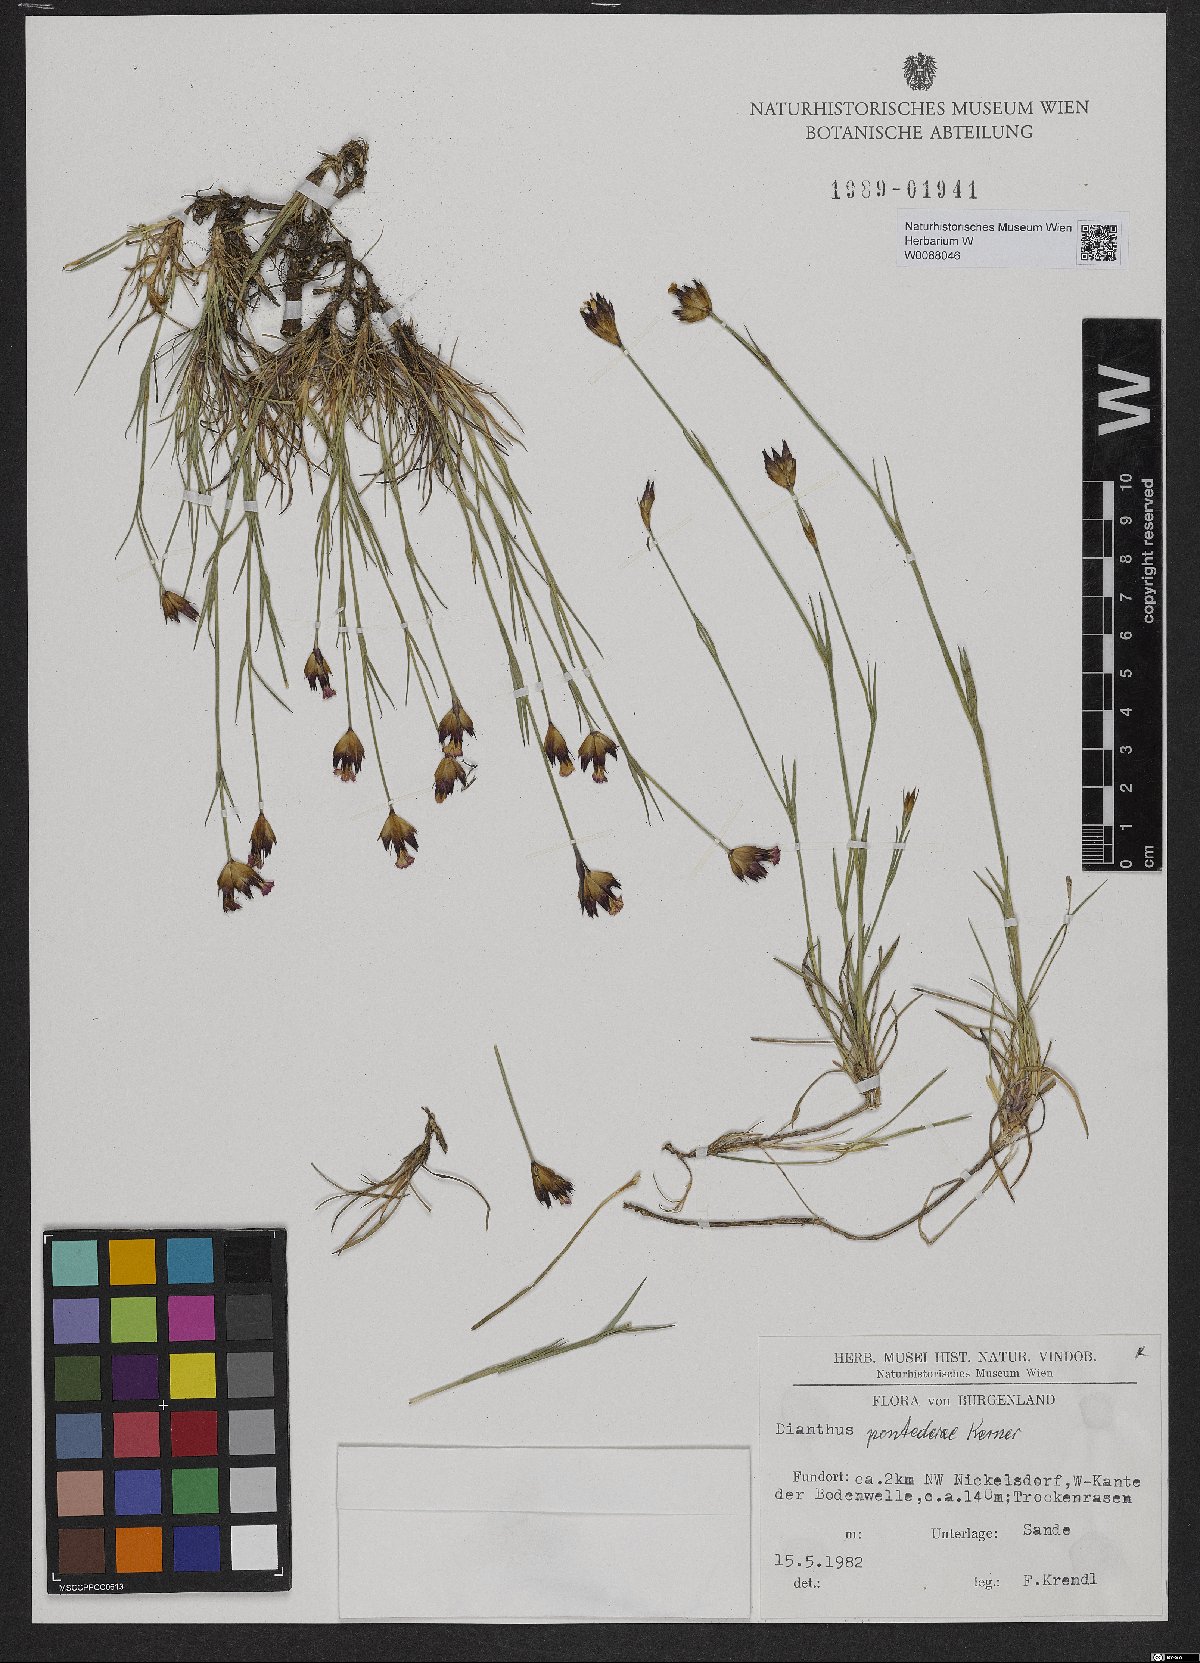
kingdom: Plantae
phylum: Tracheophyta
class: Magnoliopsida
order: Caryophyllales
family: Caryophyllaceae
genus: Dianthus
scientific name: Dianthus pontederae
